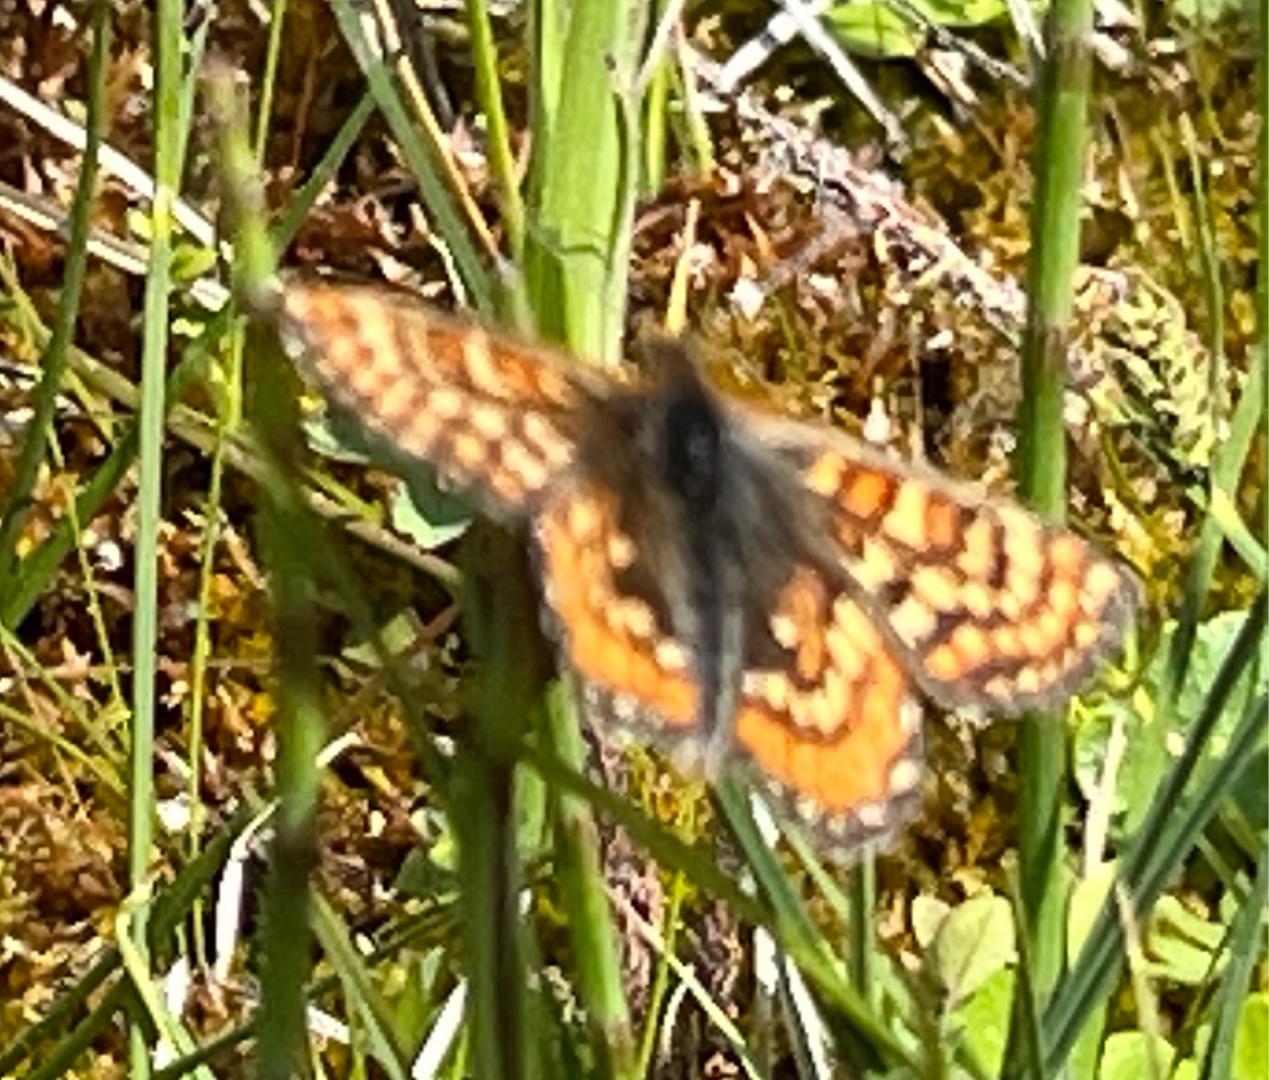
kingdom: Animalia
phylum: Arthropoda
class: Insecta
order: Lepidoptera
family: Nymphalidae
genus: Euphydryas
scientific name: Euphydryas aurinia
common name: Hedepletvinge
